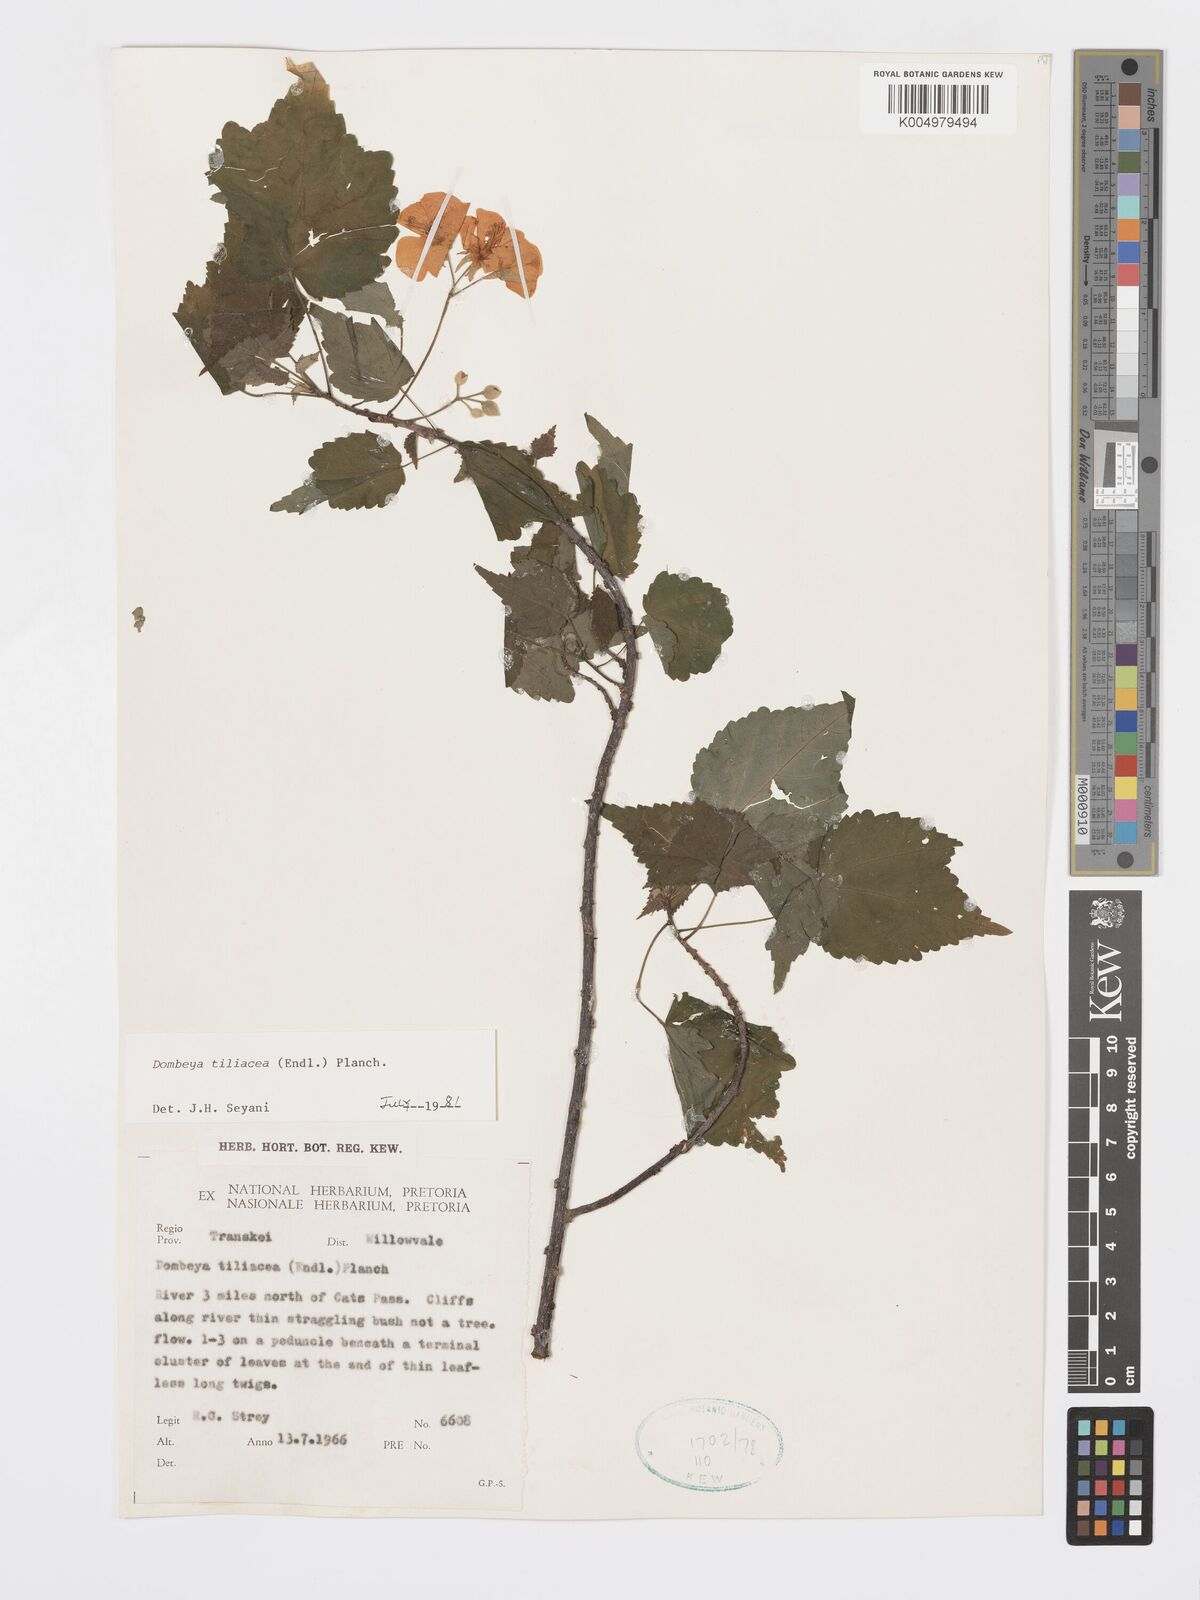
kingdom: Plantae
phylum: Tracheophyta
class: Magnoliopsida
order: Malvales
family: Malvaceae
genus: Dombeya
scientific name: Dombeya tiliacea
